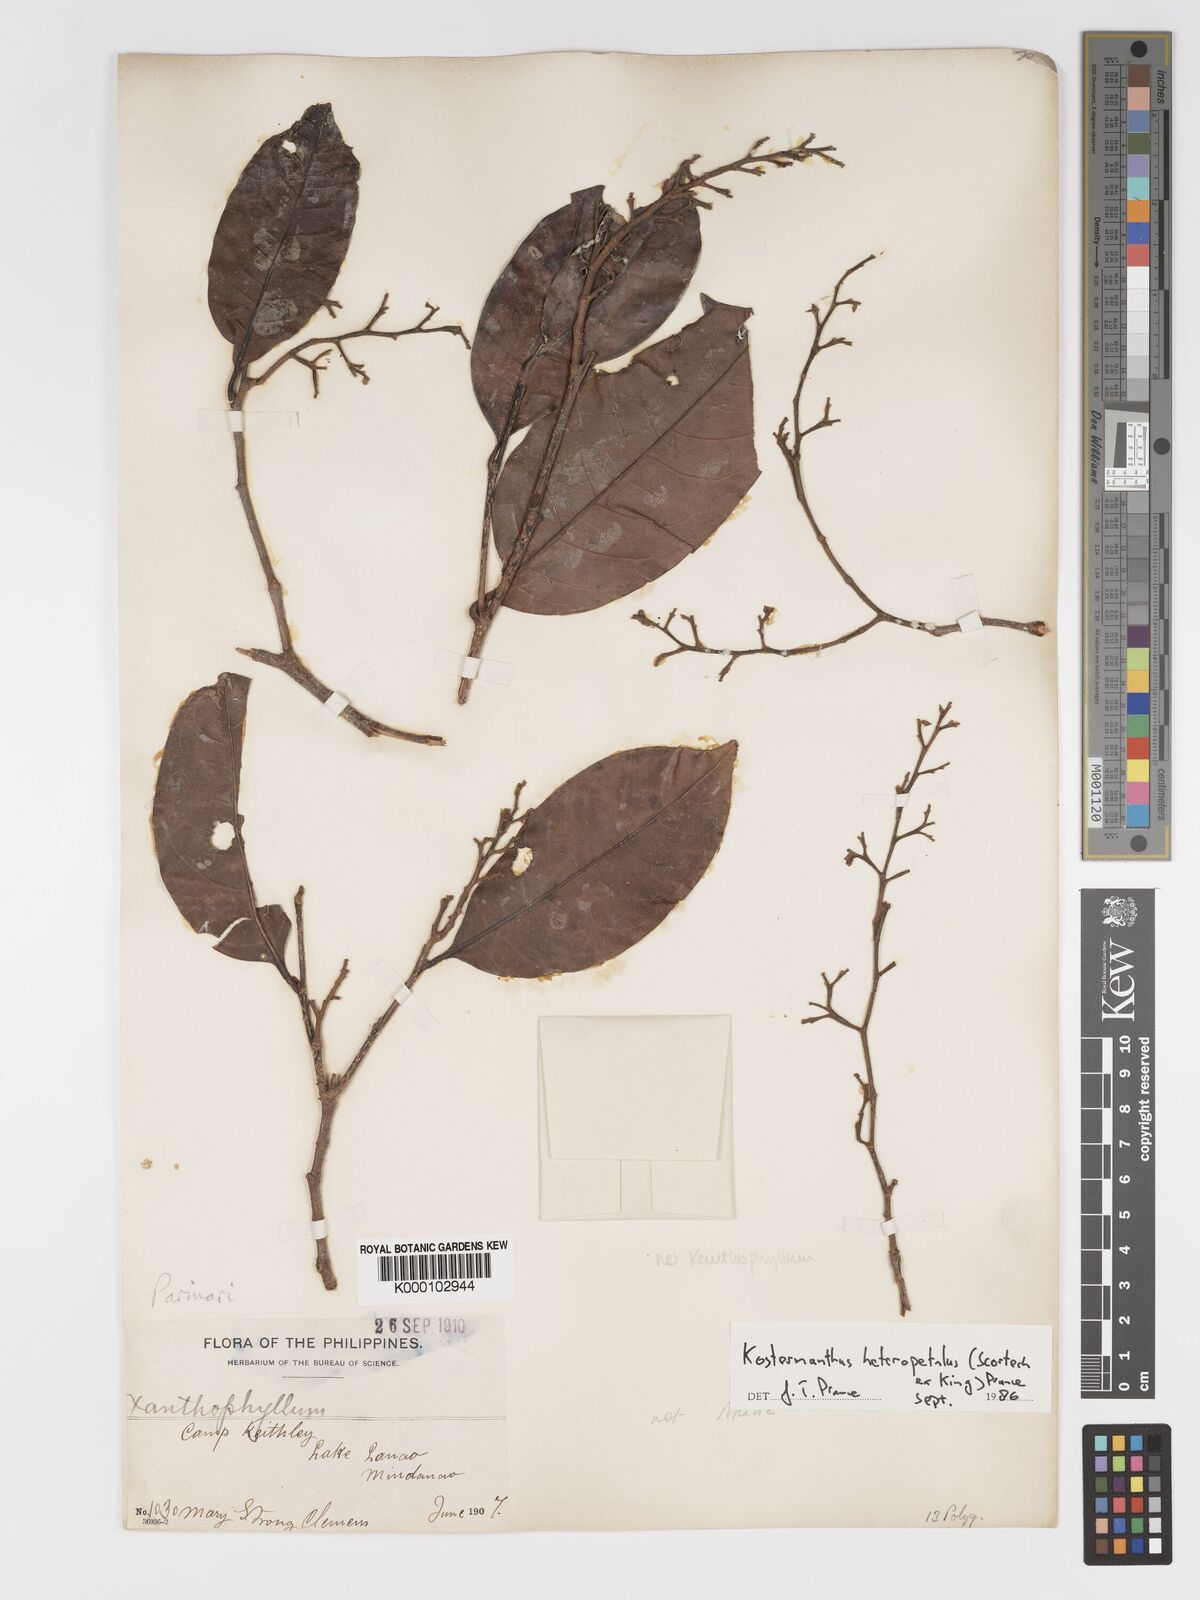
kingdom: Plantae
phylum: Tracheophyta
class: Magnoliopsida
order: Malpighiales
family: Chrysobalanaceae
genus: Kostermanthus
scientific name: Kostermanthus heteropetalus
